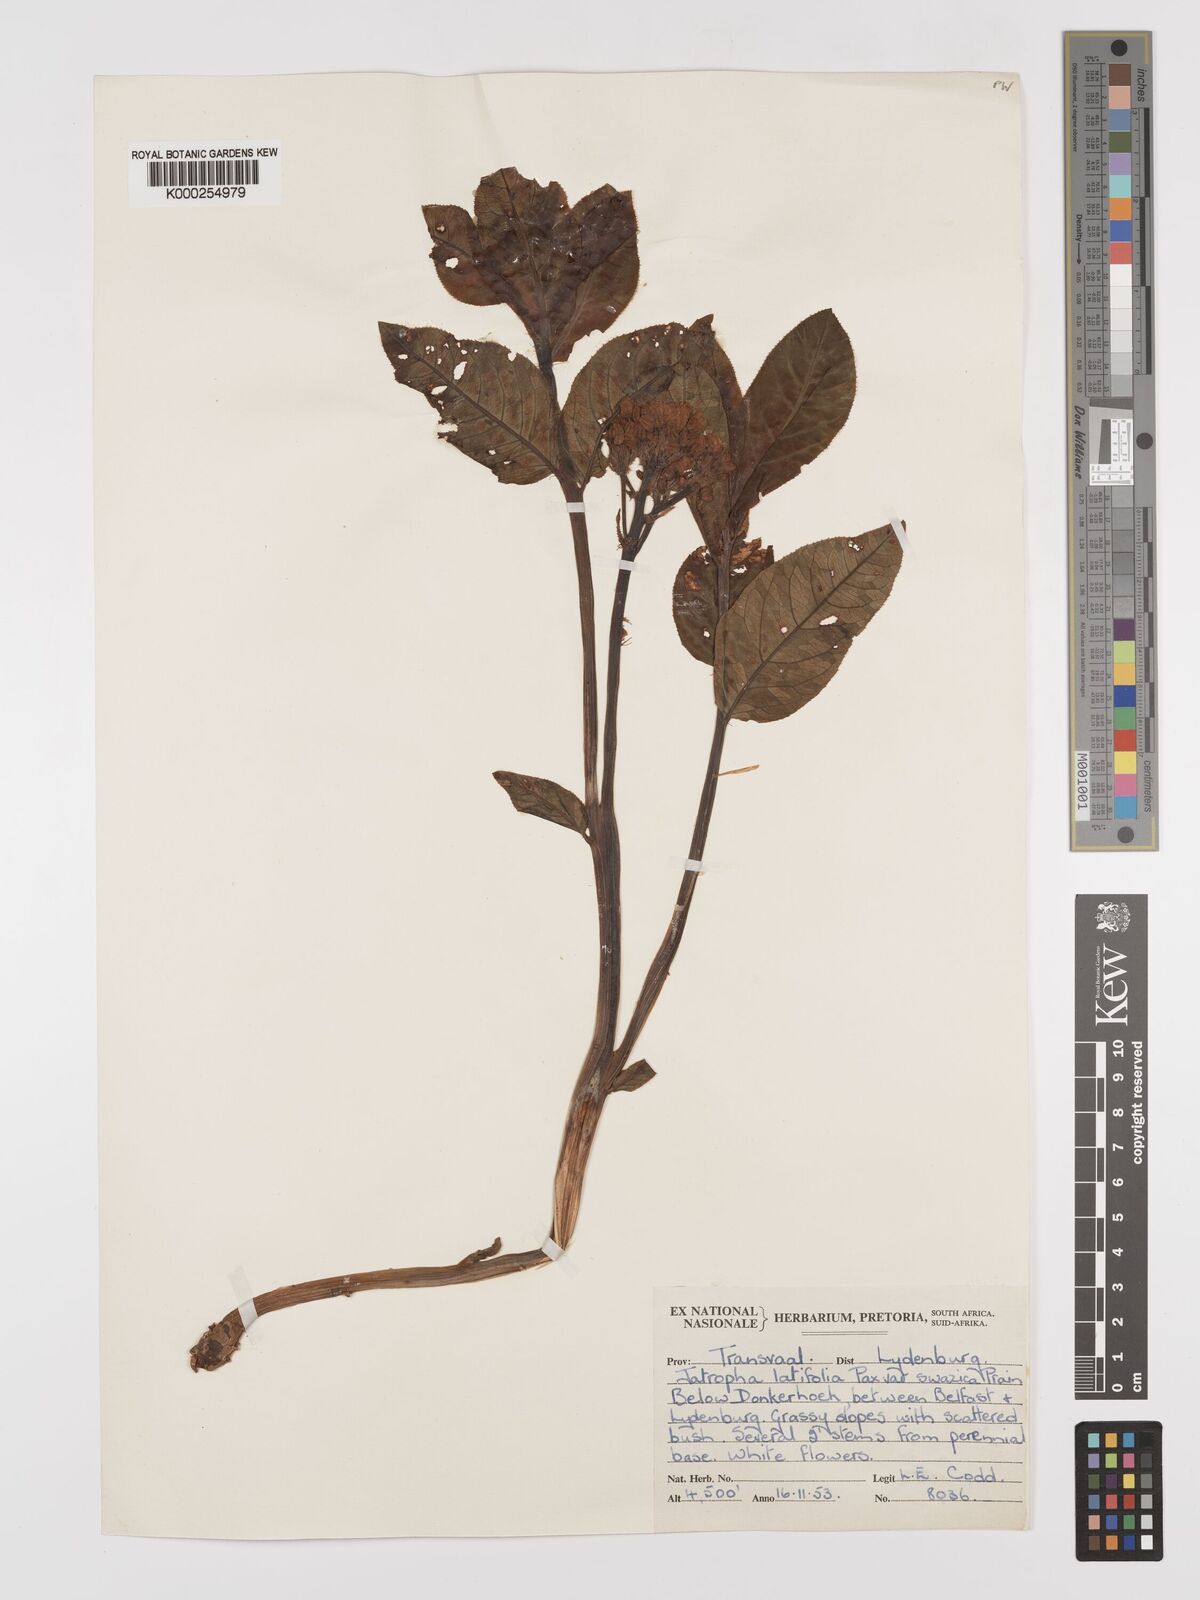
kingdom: Plantae
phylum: Tracheophyta
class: Magnoliopsida
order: Malpighiales
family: Euphorbiaceae
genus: Jatropha
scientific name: Jatropha latifolia
